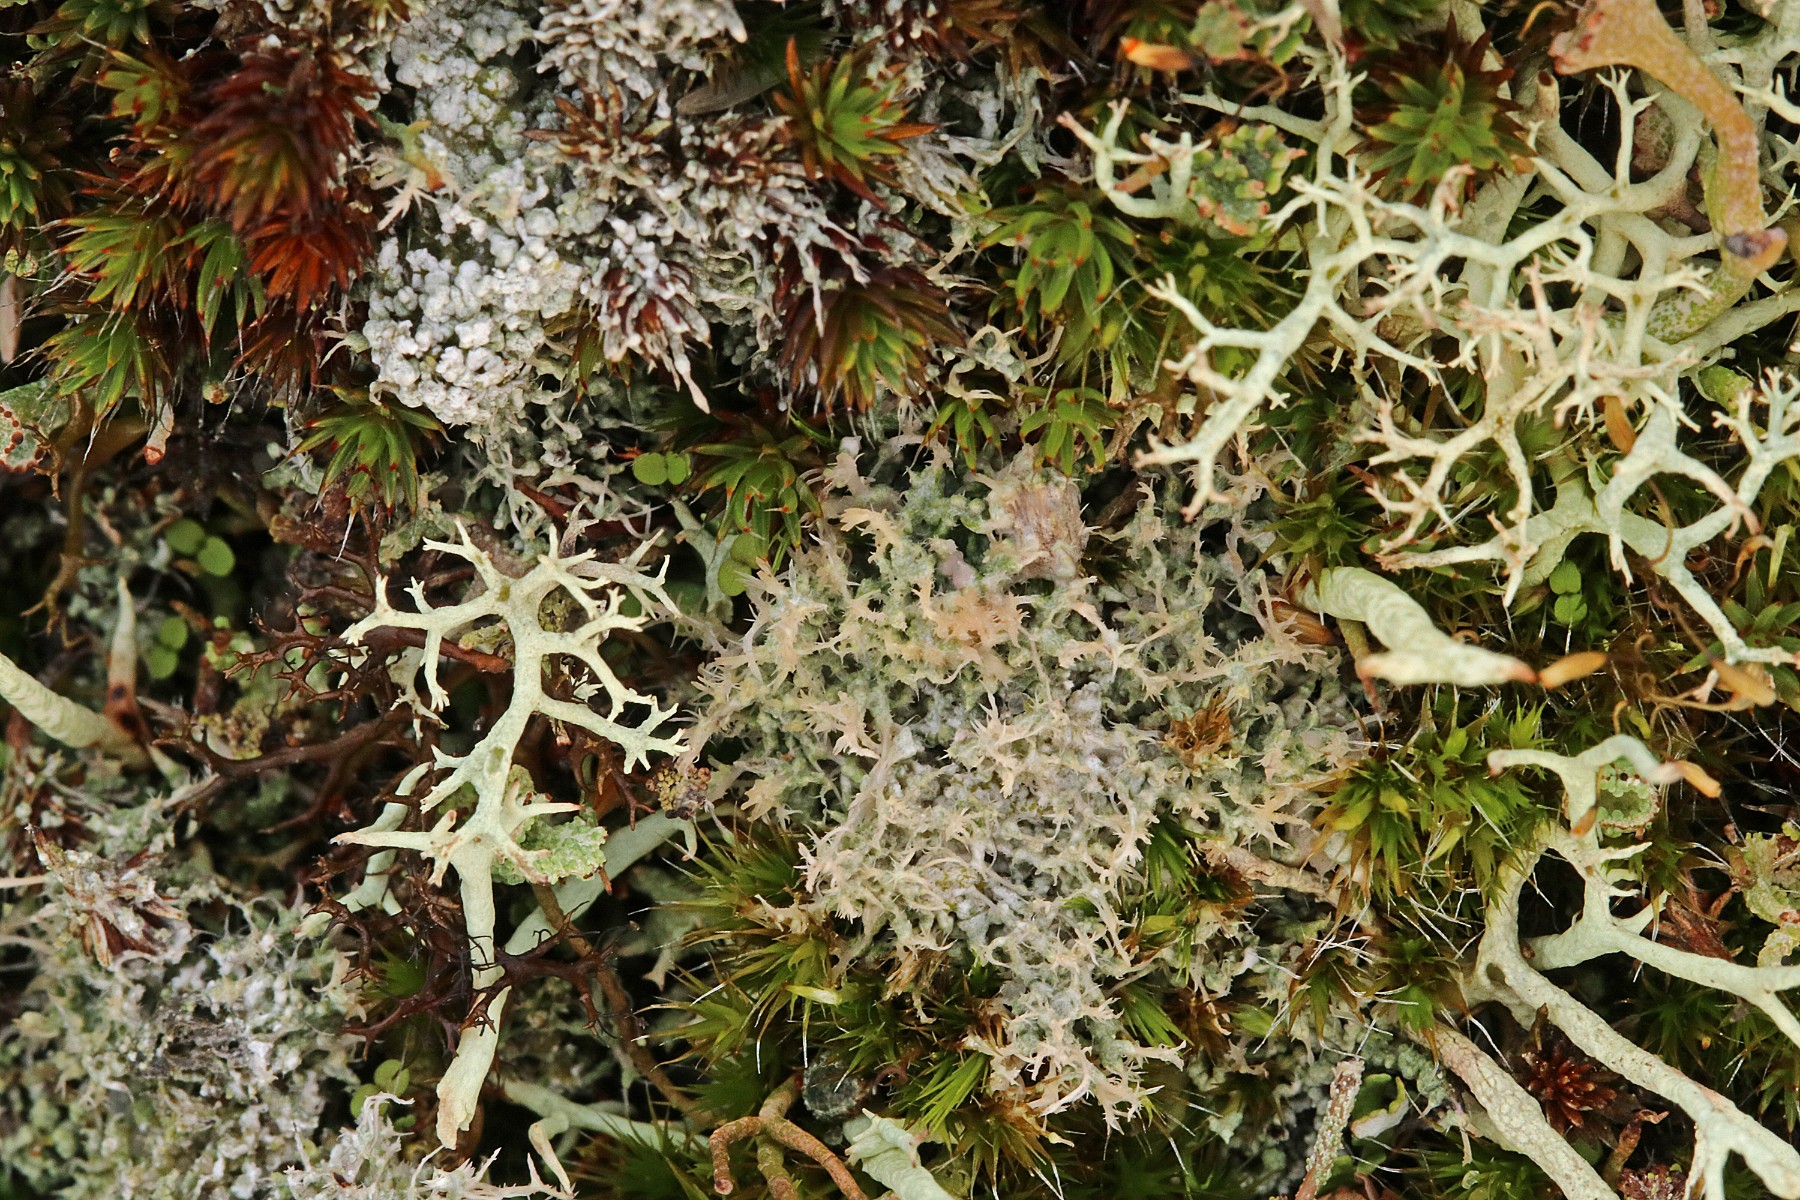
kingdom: Fungi
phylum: Ascomycota
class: Lecanoromycetes
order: Pertusariales
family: Ochrolechiaceae
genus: Ochrolechia
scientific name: Ochrolechia frigida
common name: fjeld-blegskivelav
